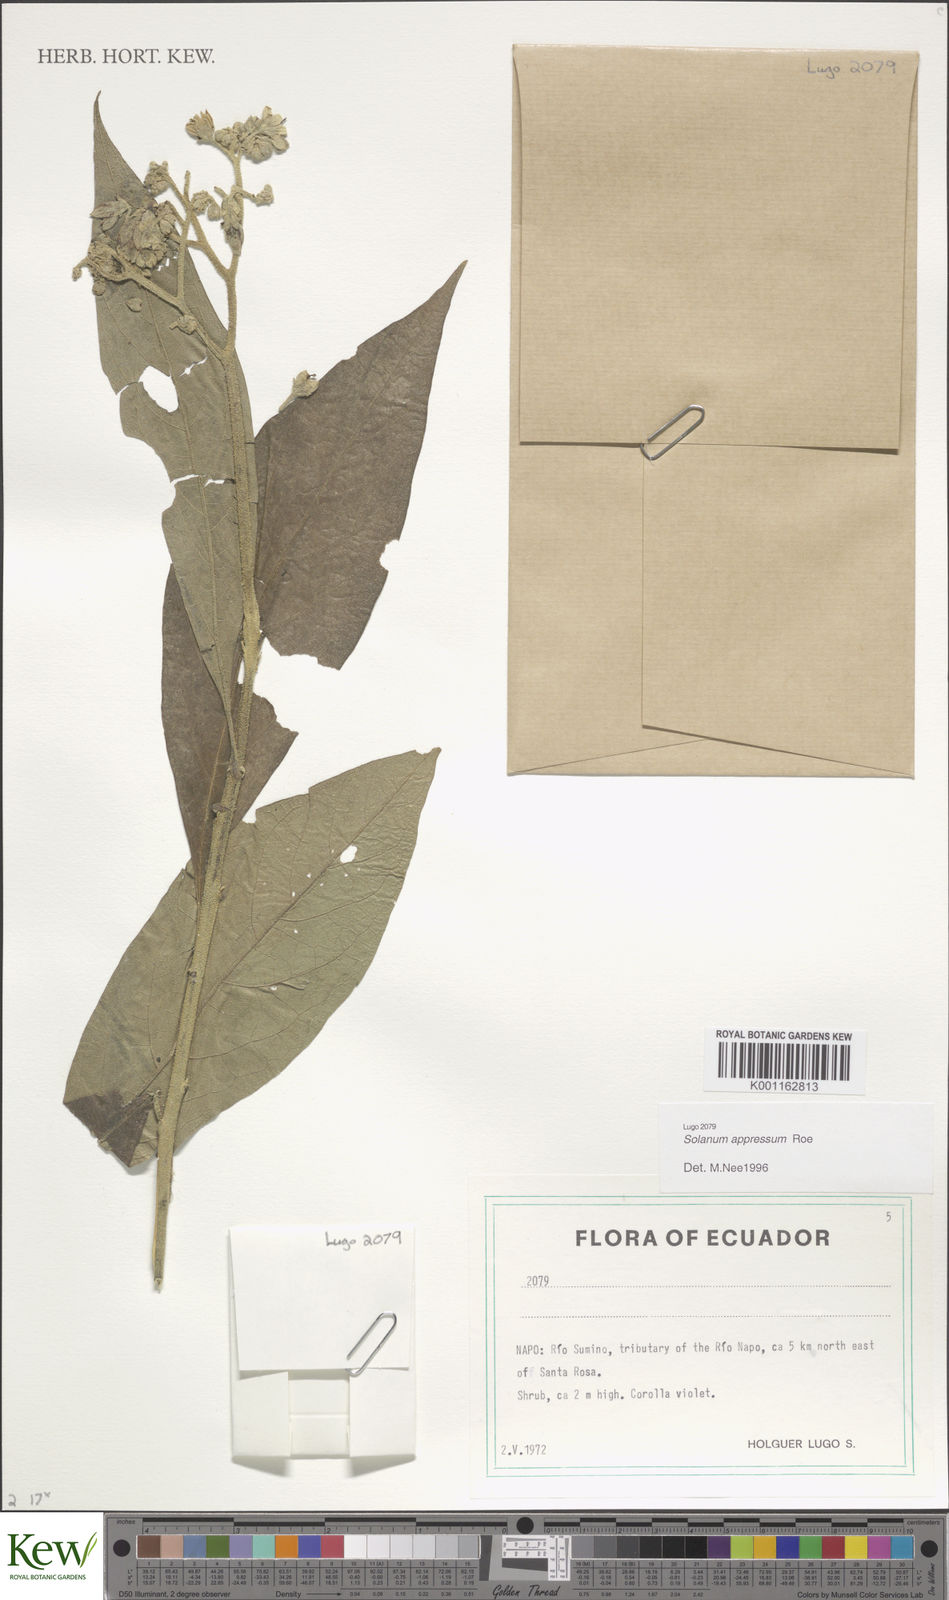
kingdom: Plantae
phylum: Tracheophyta
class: Magnoliopsida
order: Solanales
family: Solanaceae
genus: Solanum
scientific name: Solanum appressum
